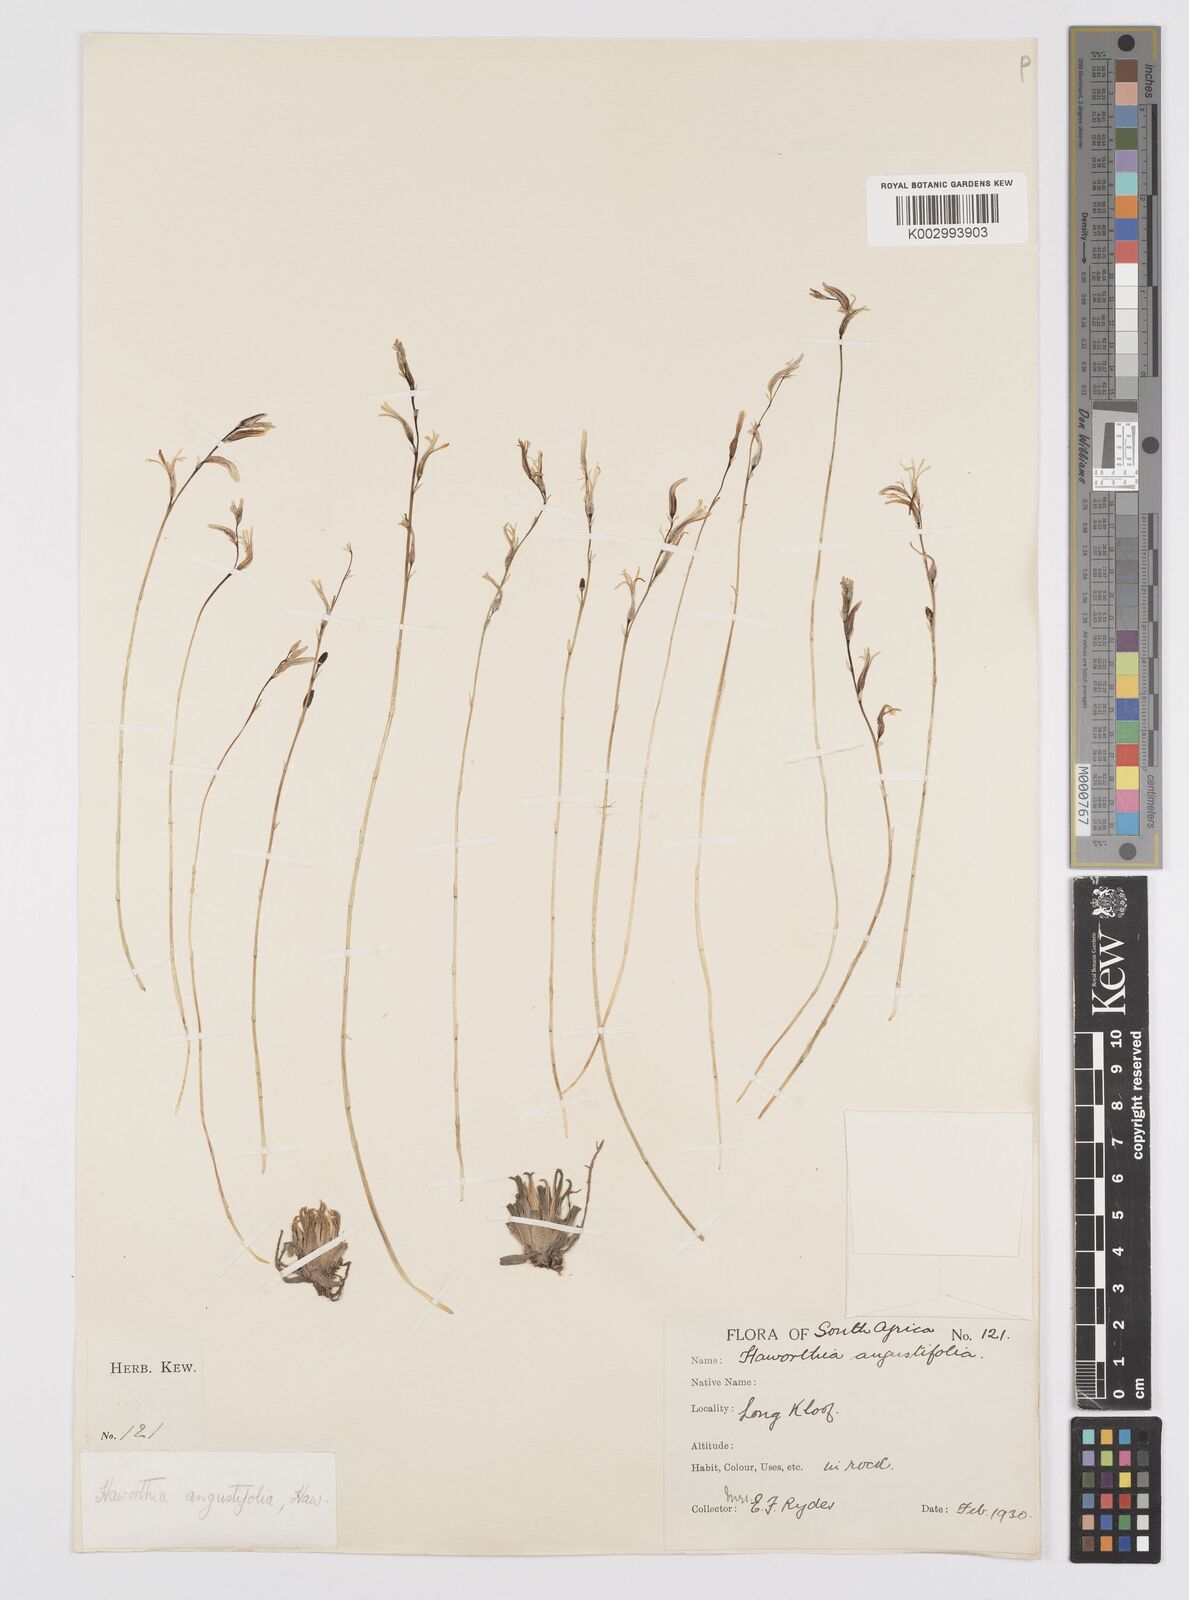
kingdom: Plantae
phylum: Tracheophyta
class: Liliopsida
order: Asparagales
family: Asphodelaceae
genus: Haworthia
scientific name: Haworthia
